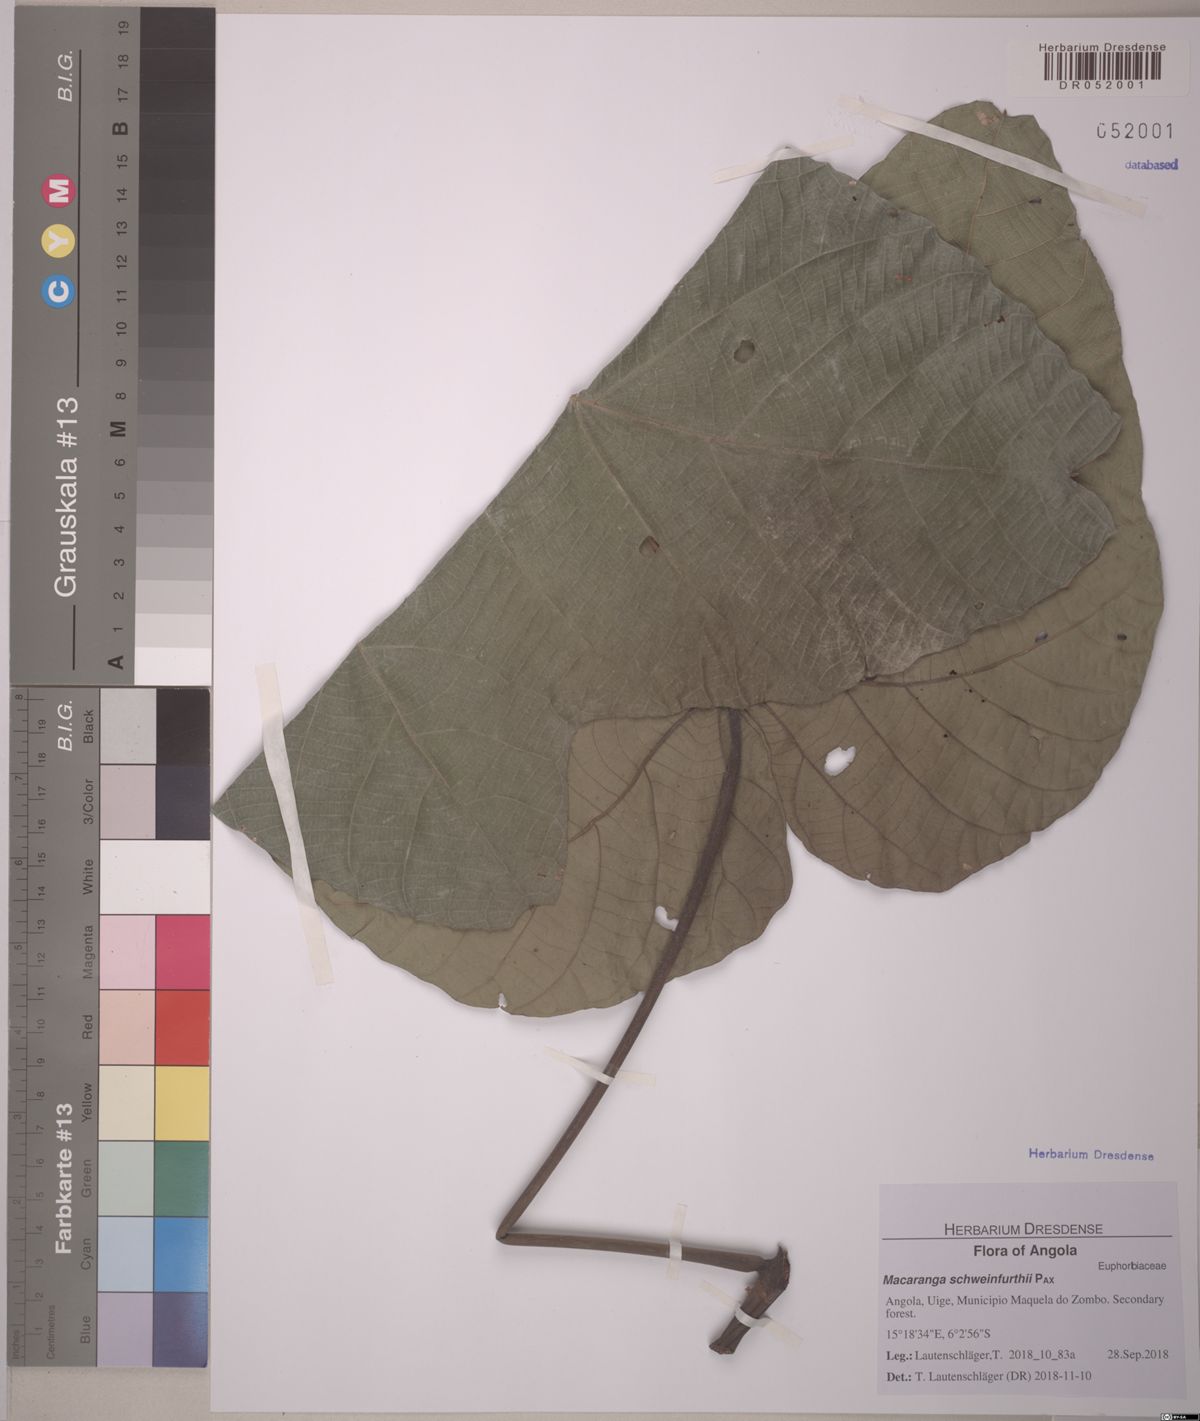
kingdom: Plantae
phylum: Tracheophyta
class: Magnoliopsida
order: Malpighiales
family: Euphorbiaceae
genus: Macaranga
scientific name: Macaranga schweinfurthii
